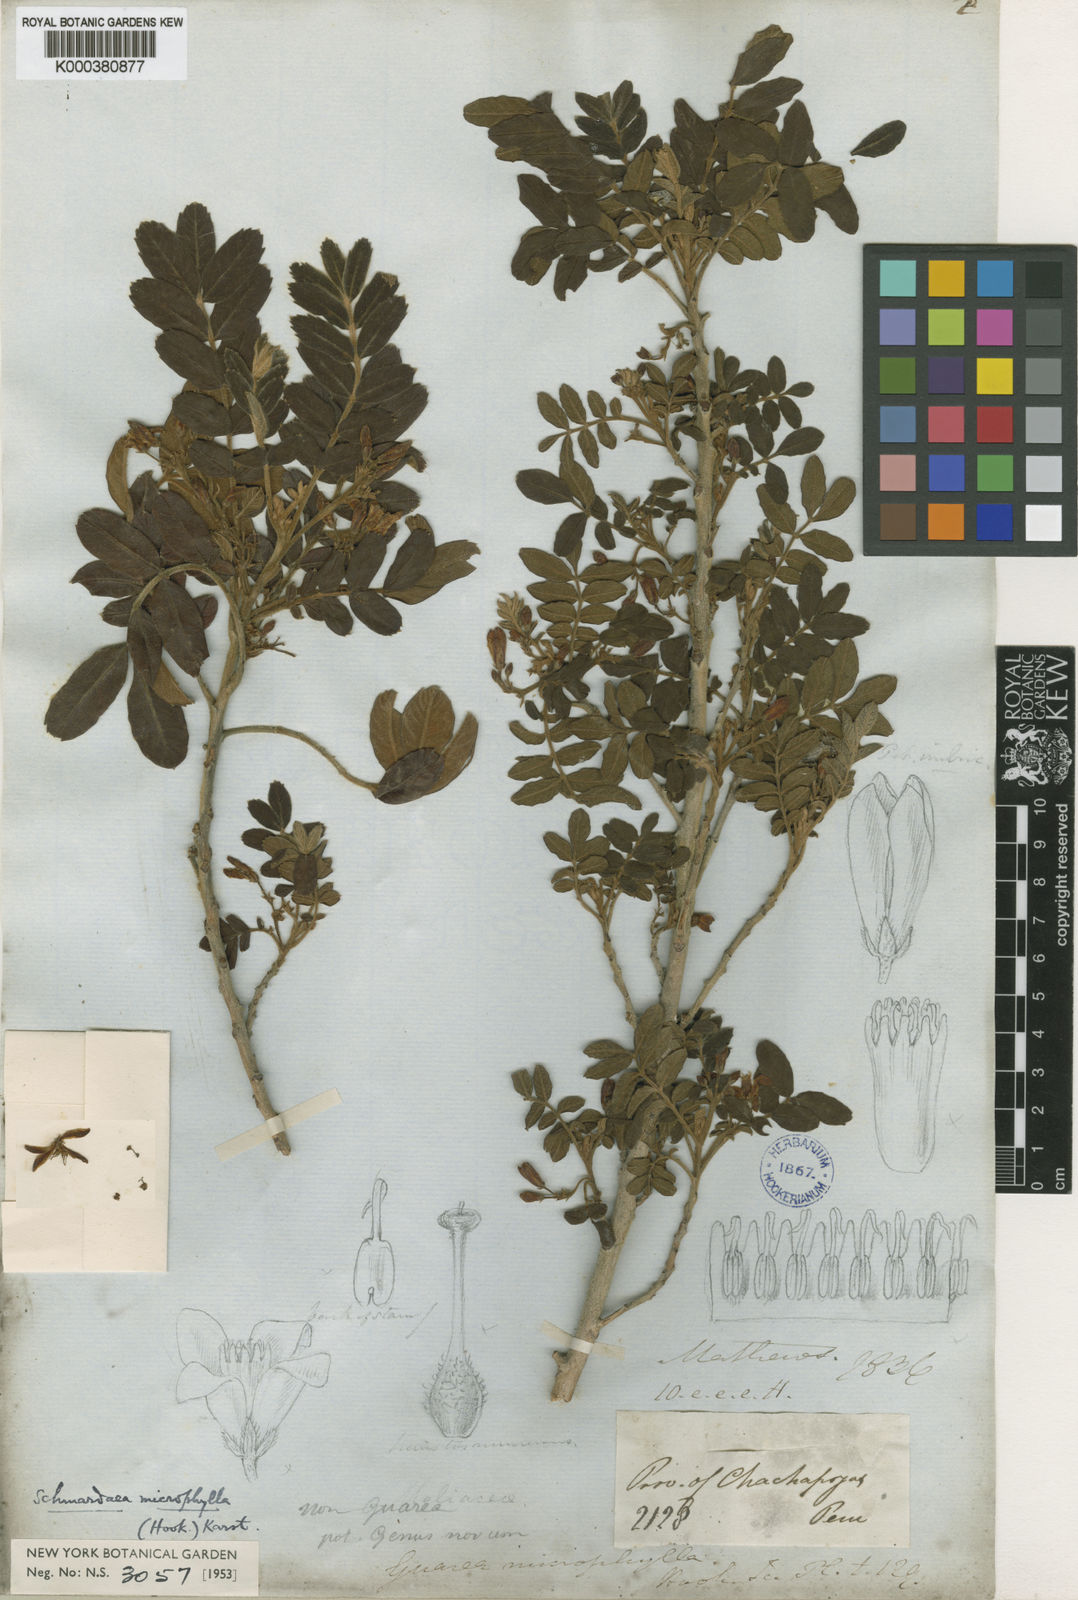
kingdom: Plantae
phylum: Tracheophyta
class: Magnoliopsida
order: Sapindales
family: Meliaceae
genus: Schmardaea
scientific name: Schmardaea
